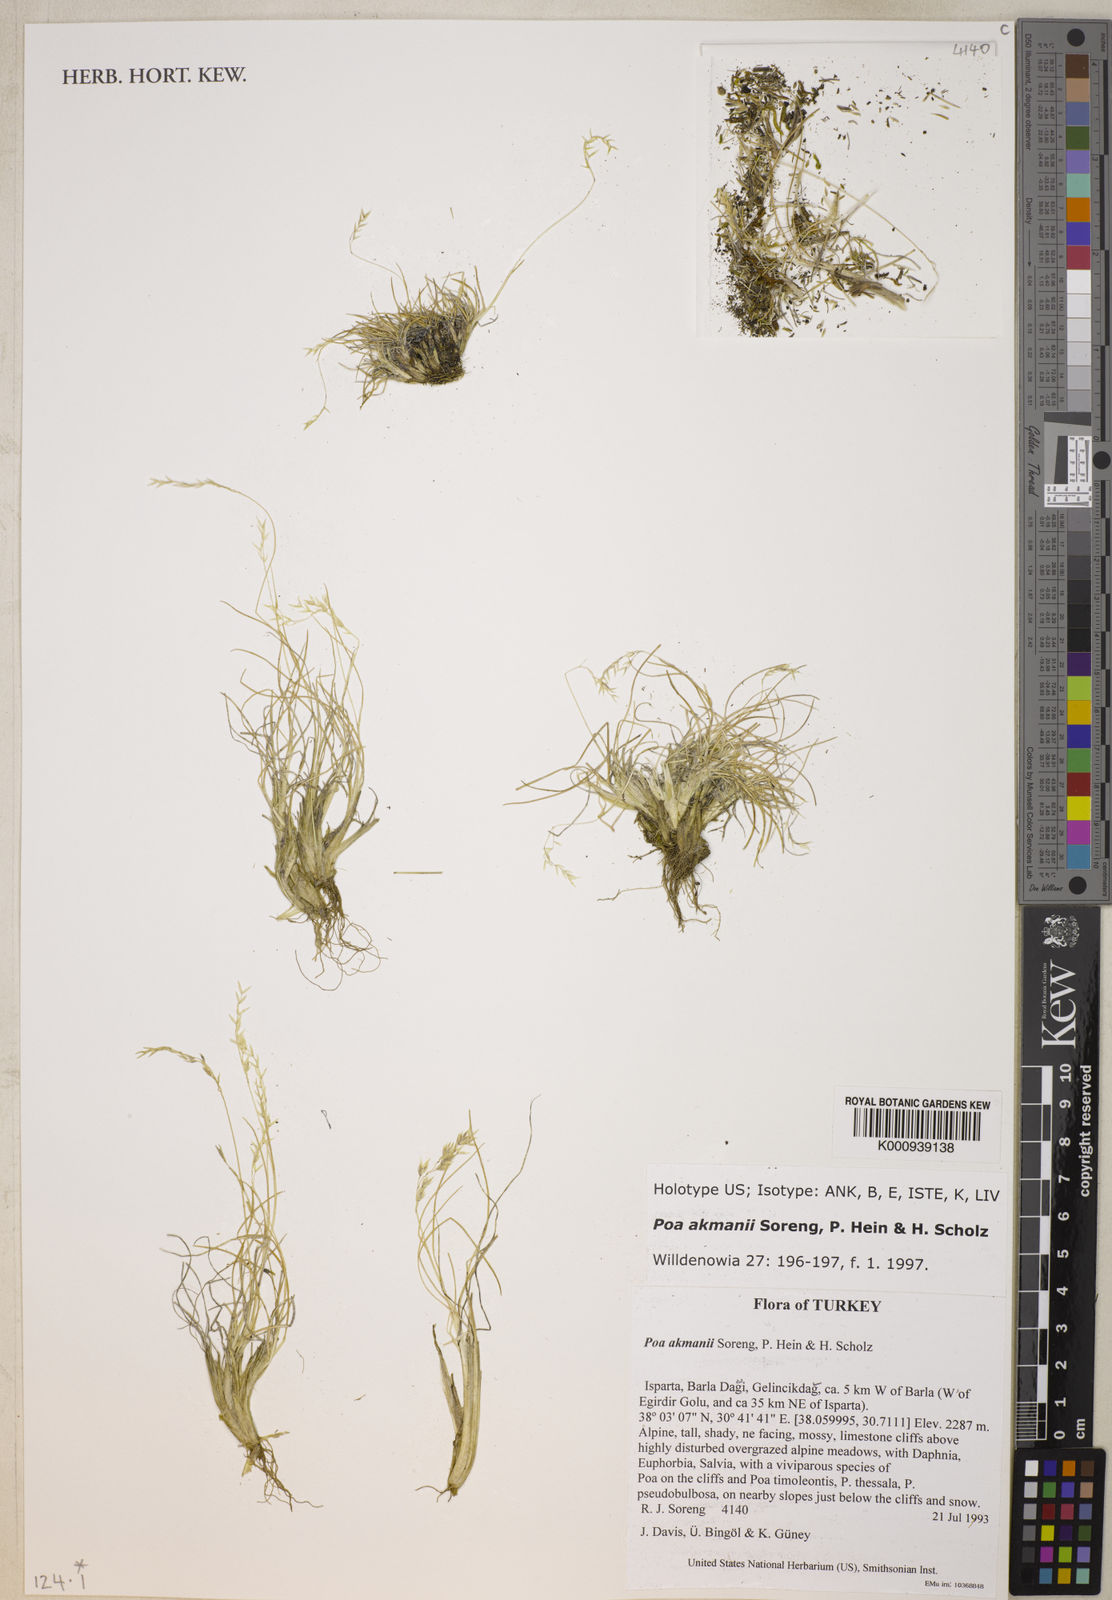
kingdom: Plantae
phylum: Tracheophyta
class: Liliopsida
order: Poales
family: Poaceae
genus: Poa
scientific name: Poa akmanii
